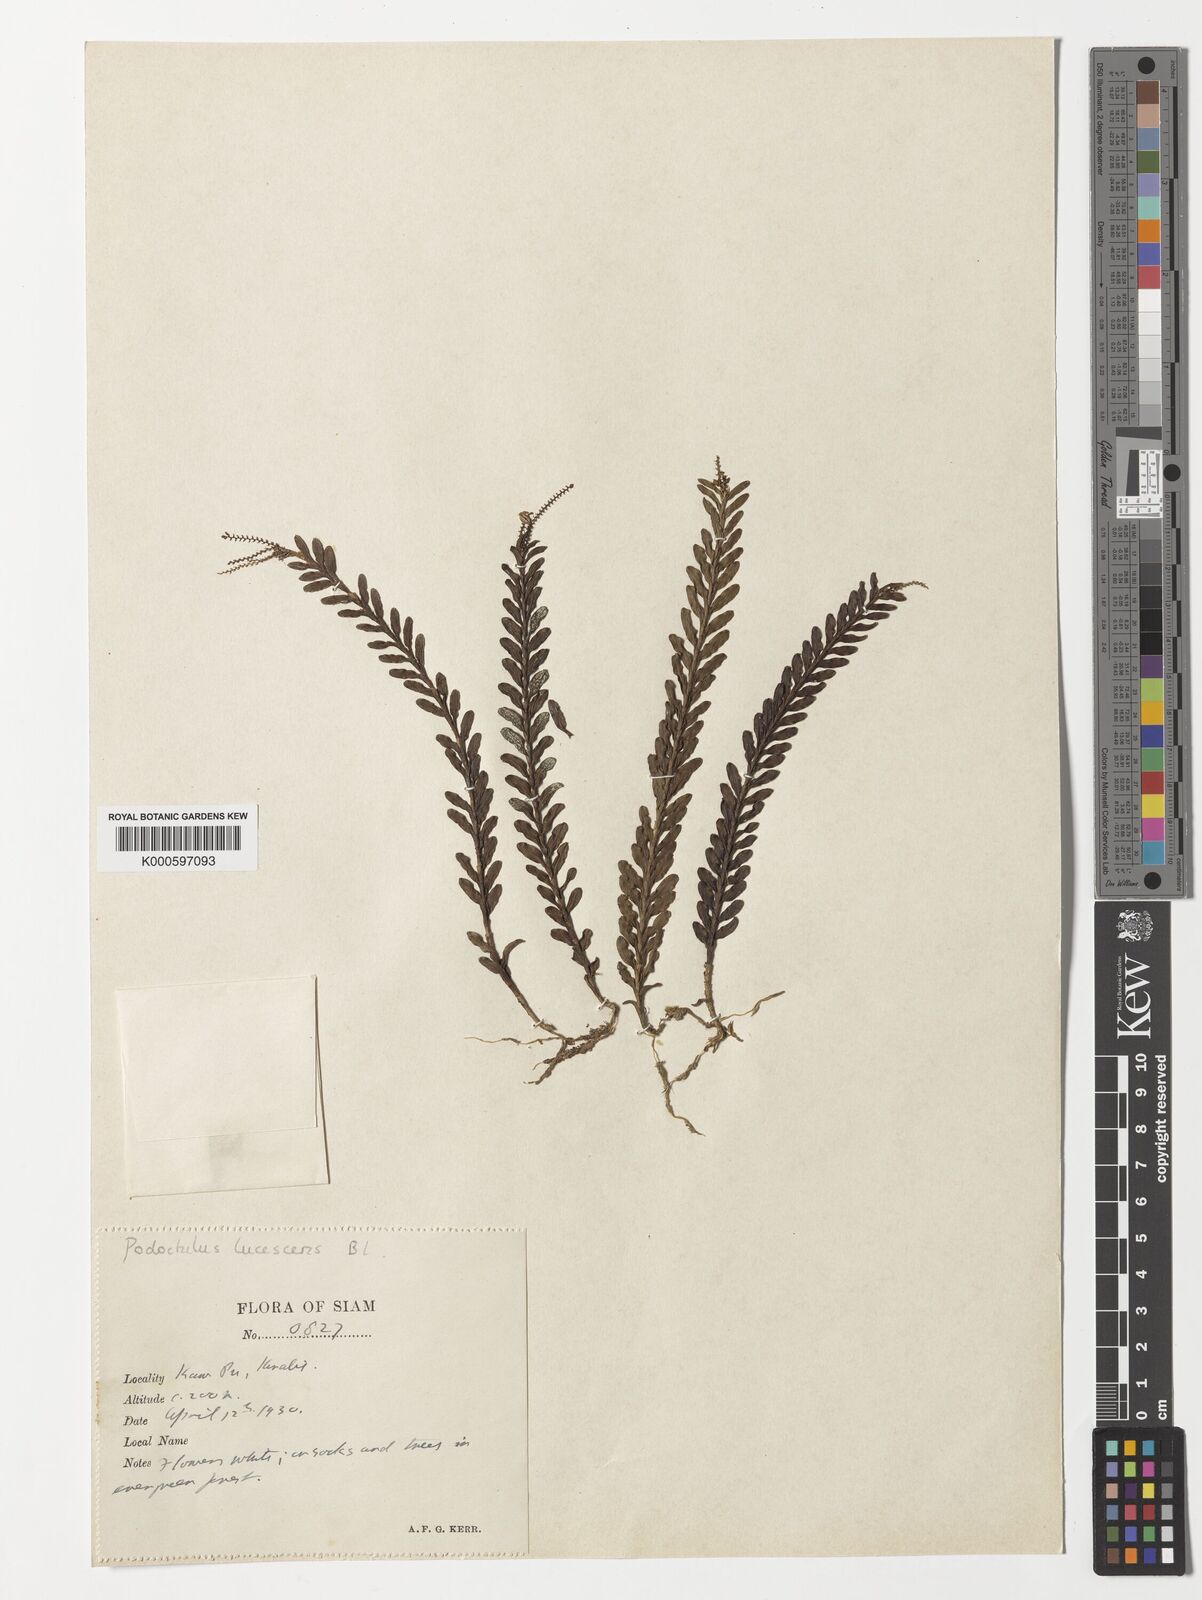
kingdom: Plantae
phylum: Tracheophyta
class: Liliopsida
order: Asparagales
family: Orchidaceae
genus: Podochilus
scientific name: Podochilus lucescens
